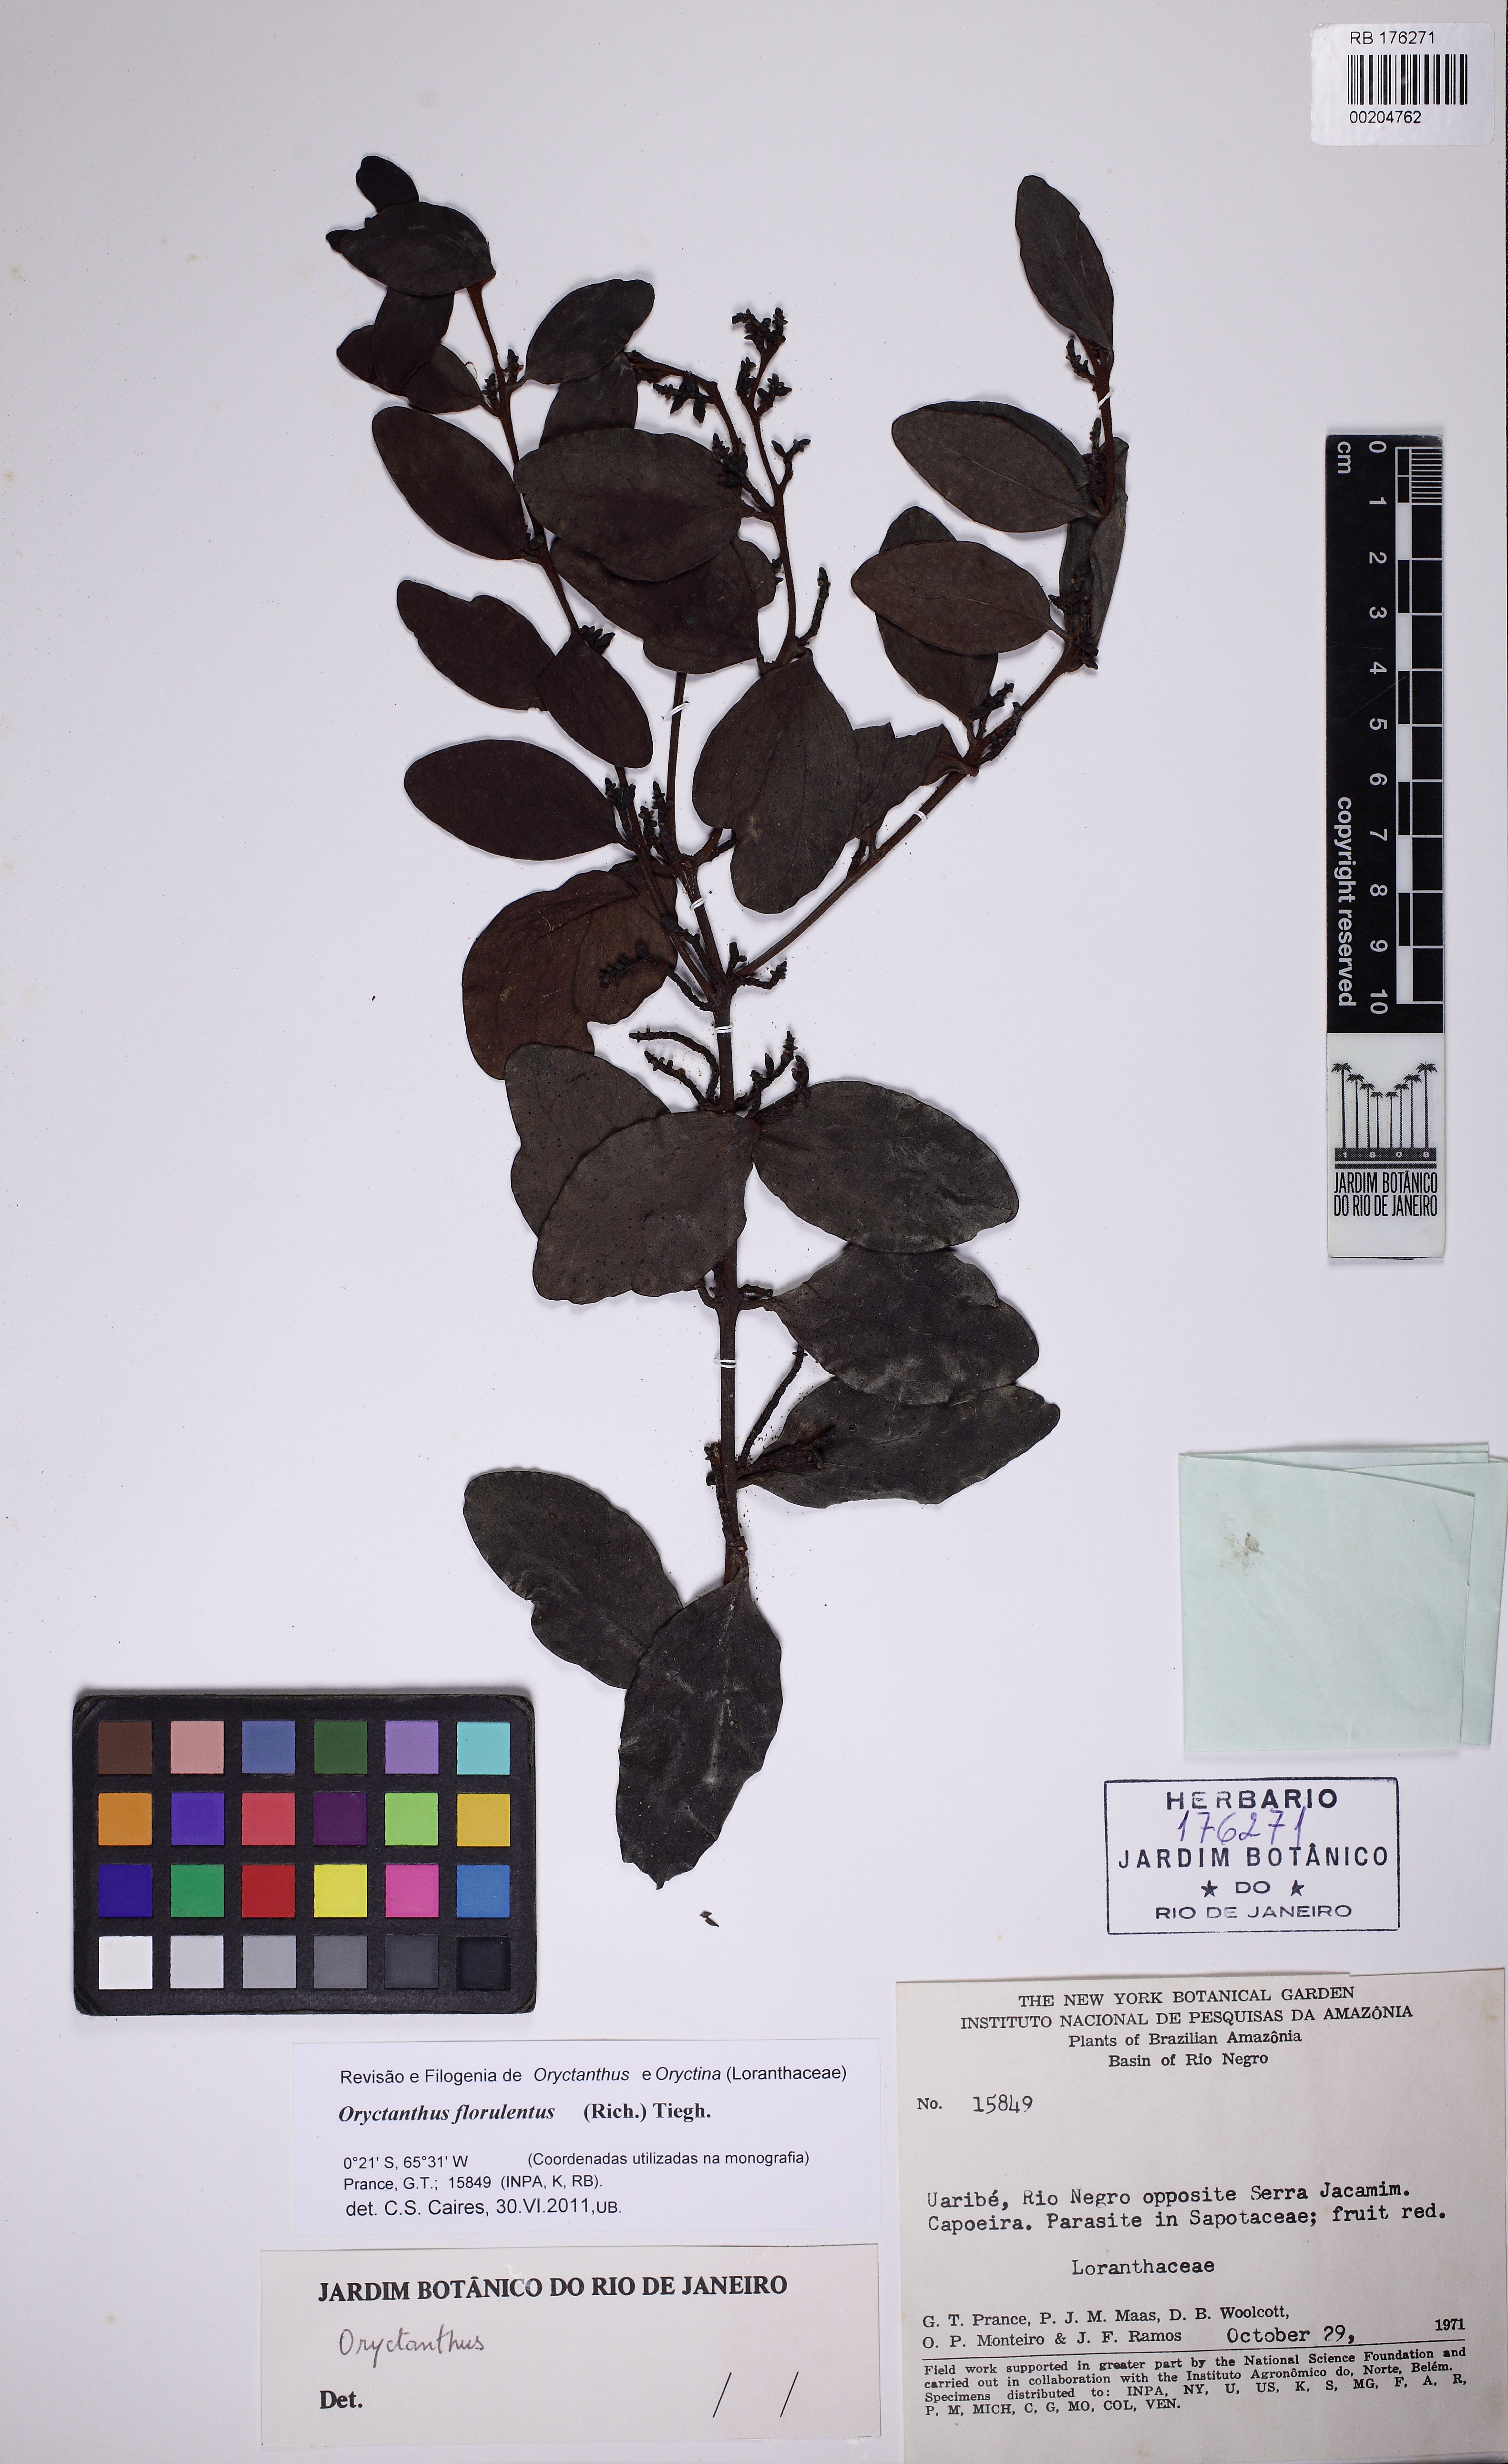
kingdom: Plantae
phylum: Tracheophyta
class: Magnoliopsida
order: Santalales
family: Loranthaceae
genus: Oryctanthus
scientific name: Oryctanthus florulentus
